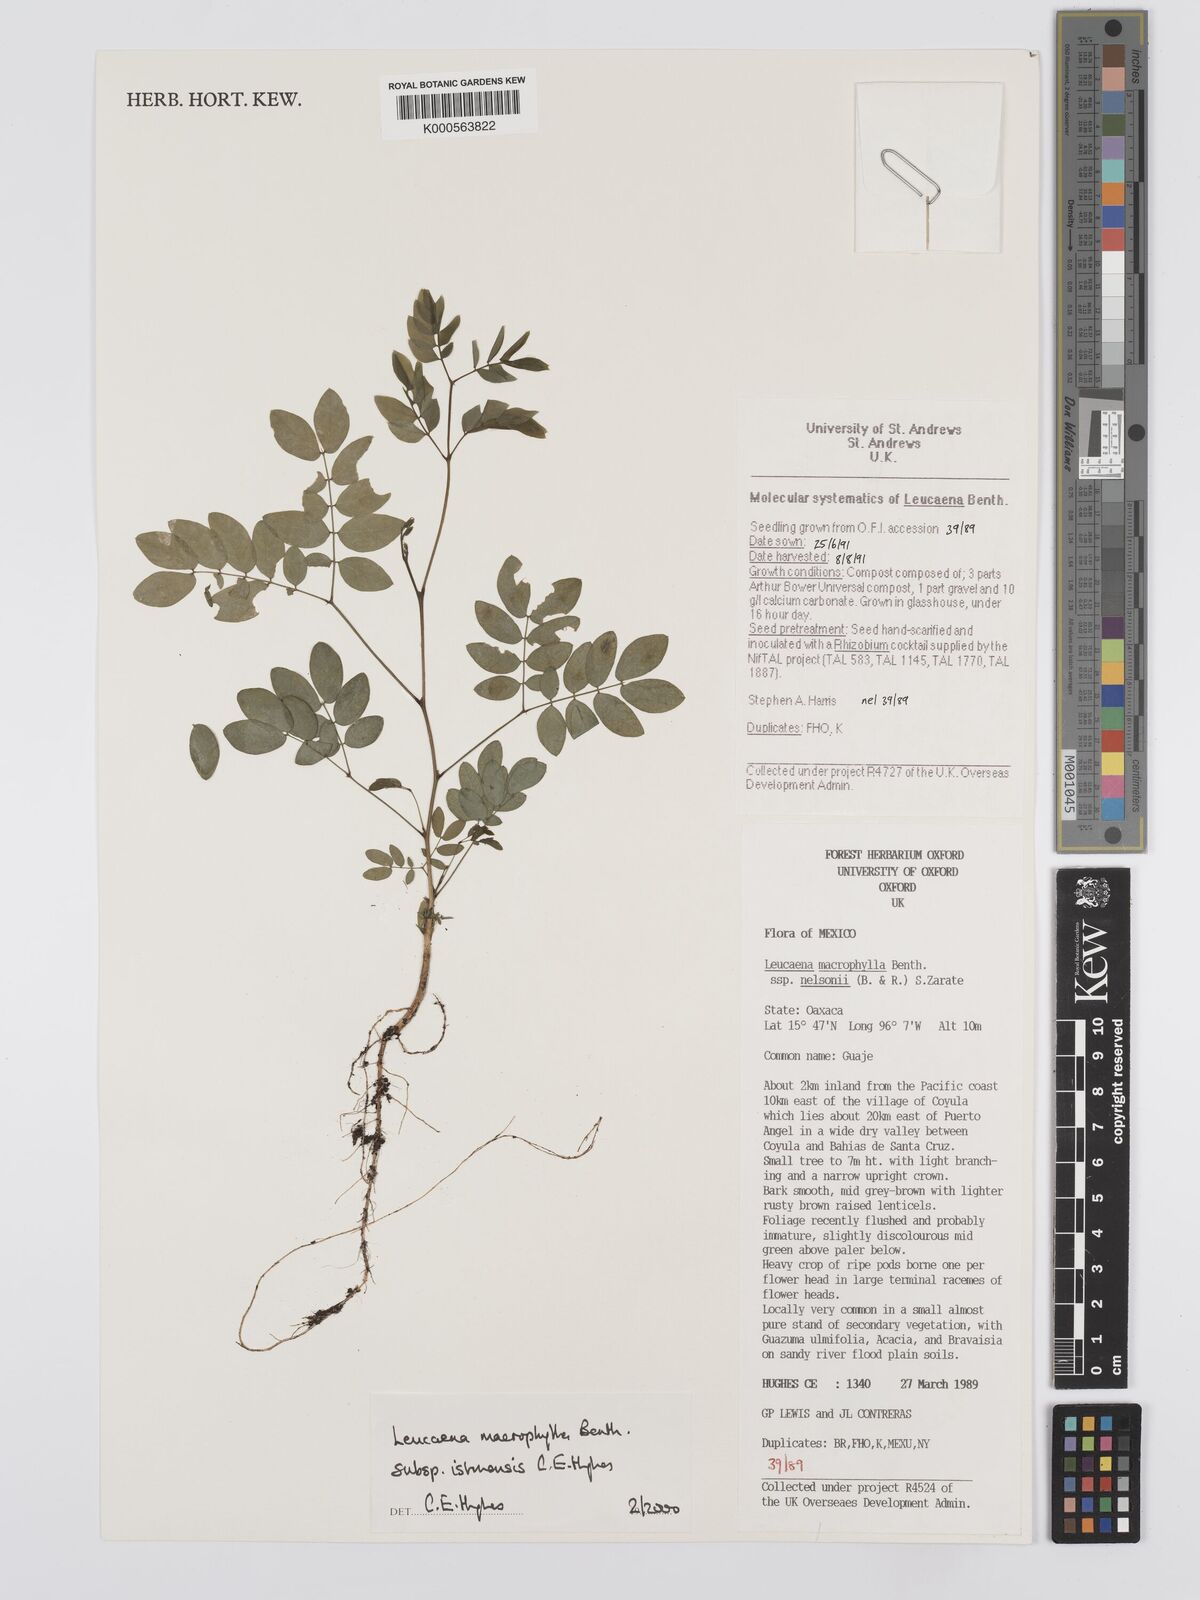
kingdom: Plantae
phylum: Tracheophyta
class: Magnoliopsida
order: Fabales
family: Fabaceae
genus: Leucaena
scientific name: Leucaena macrophylla
